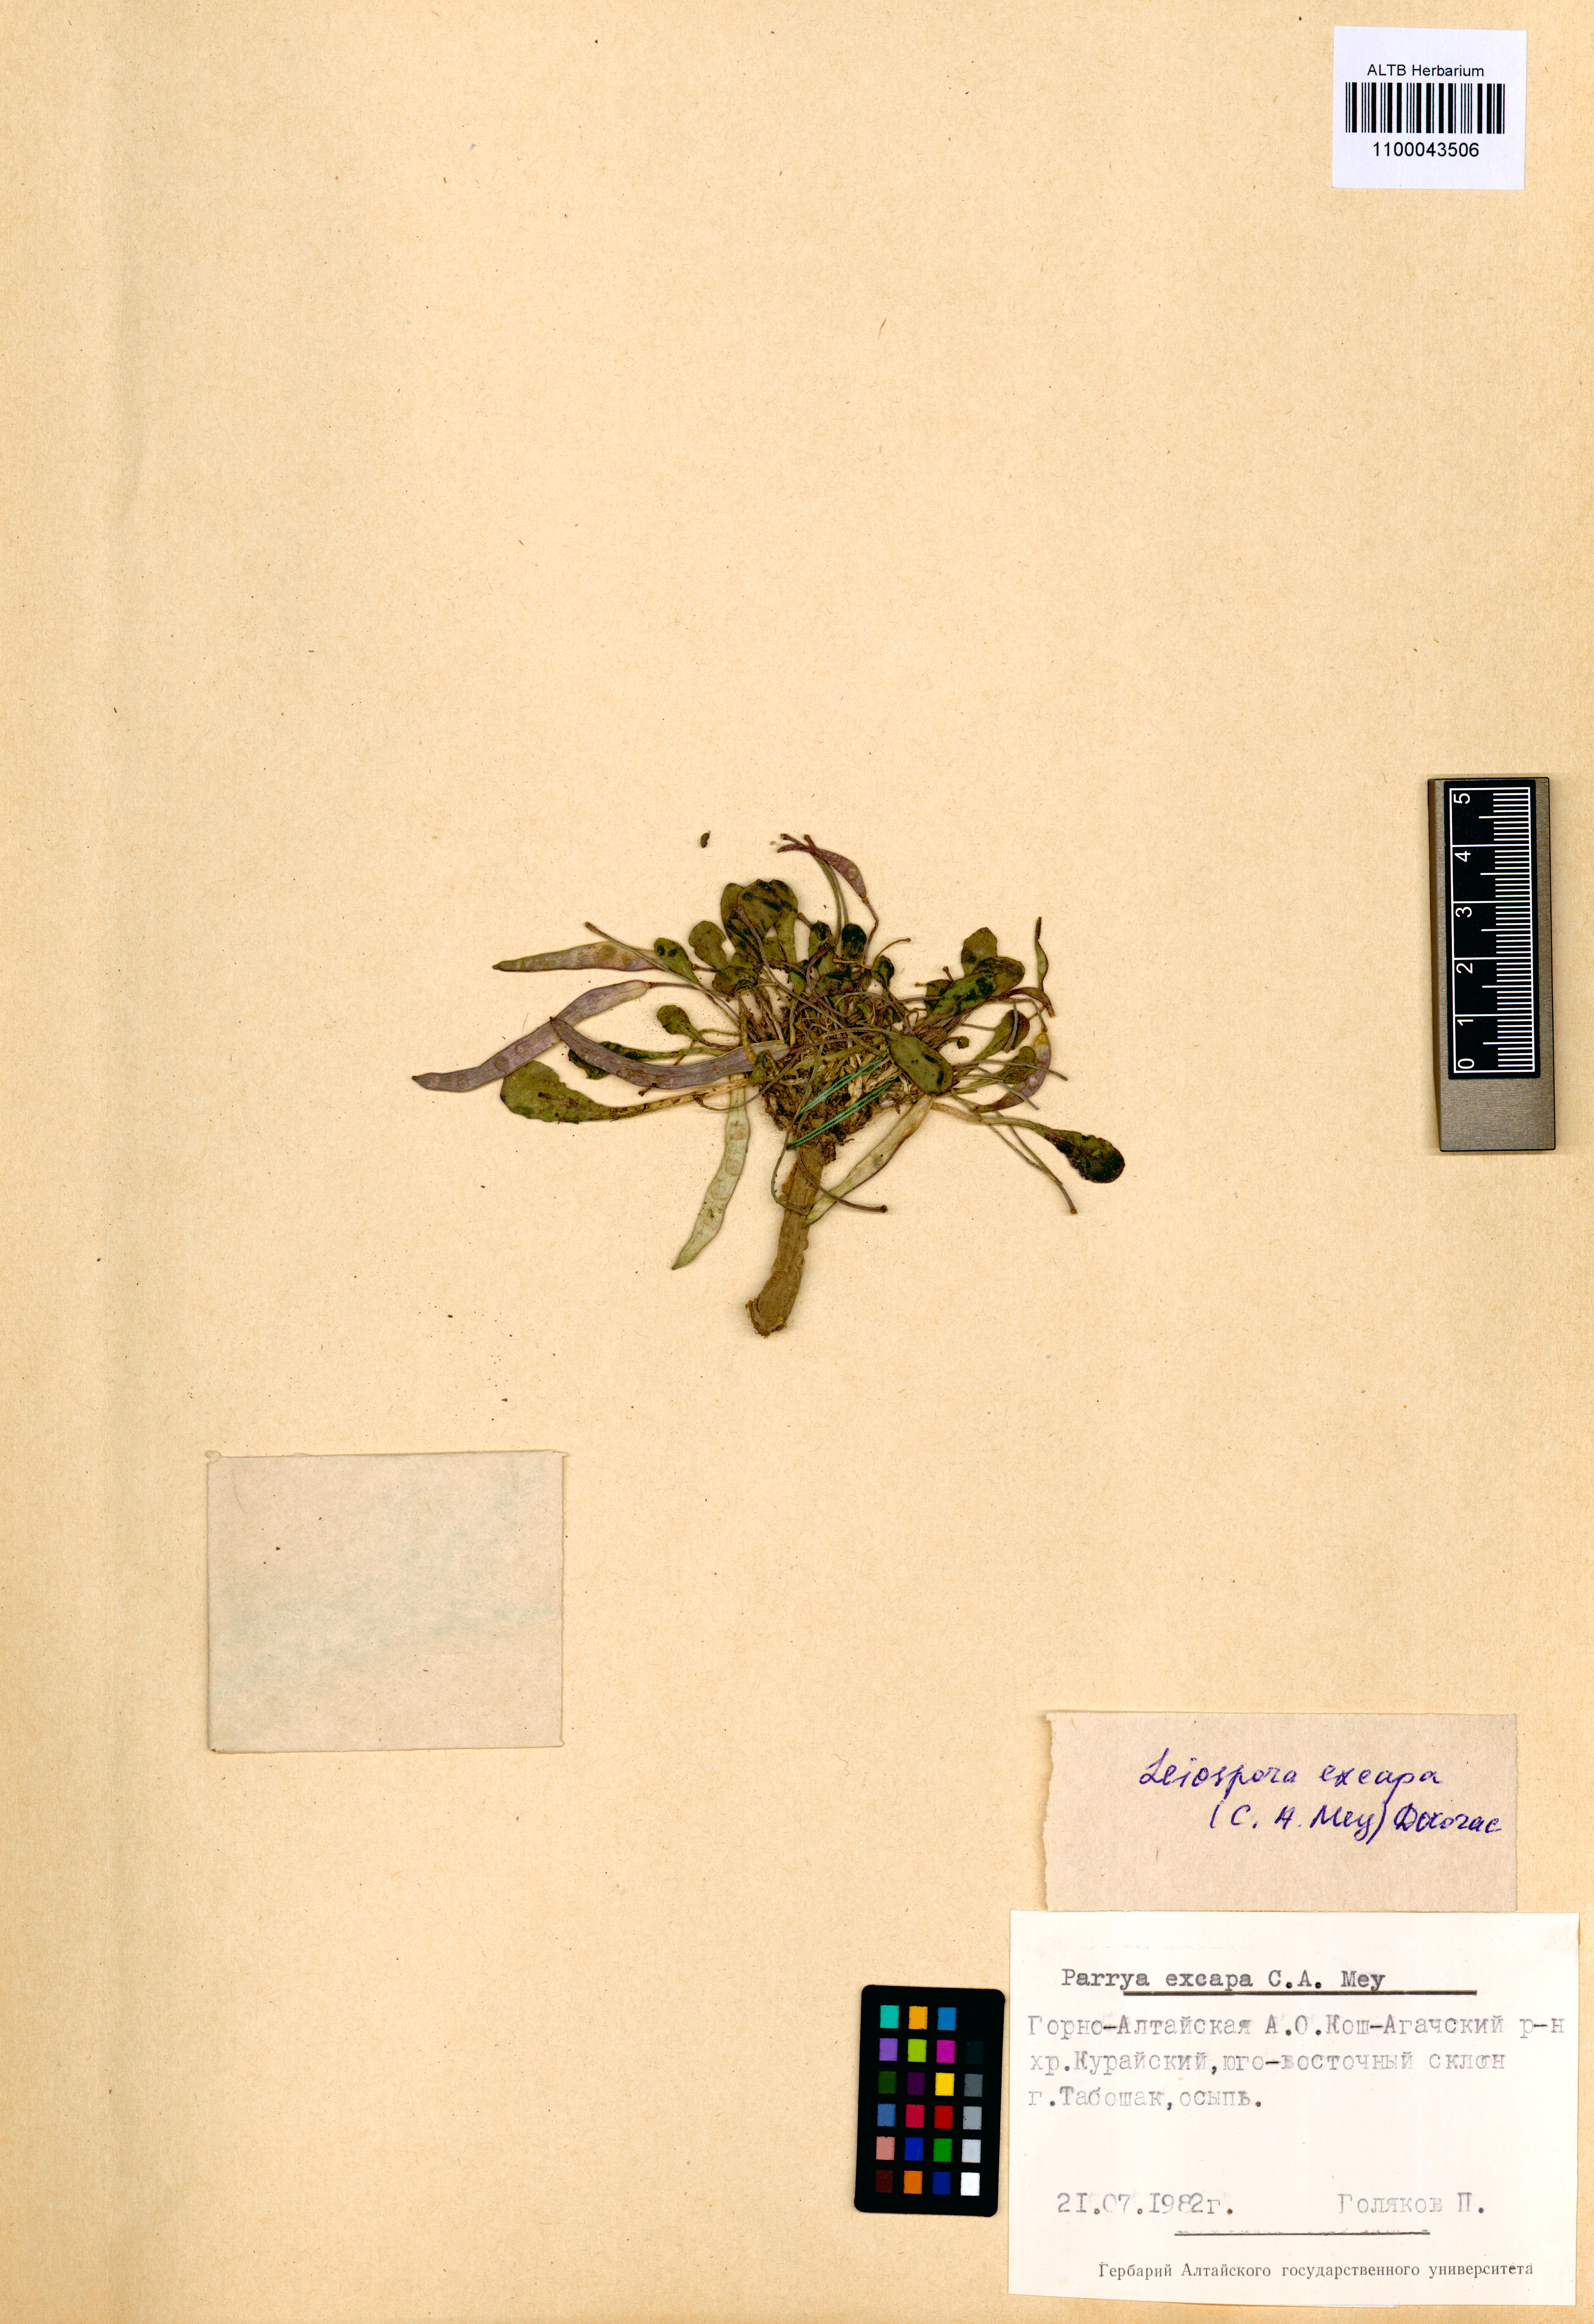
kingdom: Plantae
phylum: Tracheophyta
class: Magnoliopsida
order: Brassicales
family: Brassicaceae
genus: Leiospora
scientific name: Leiospora exscapa
